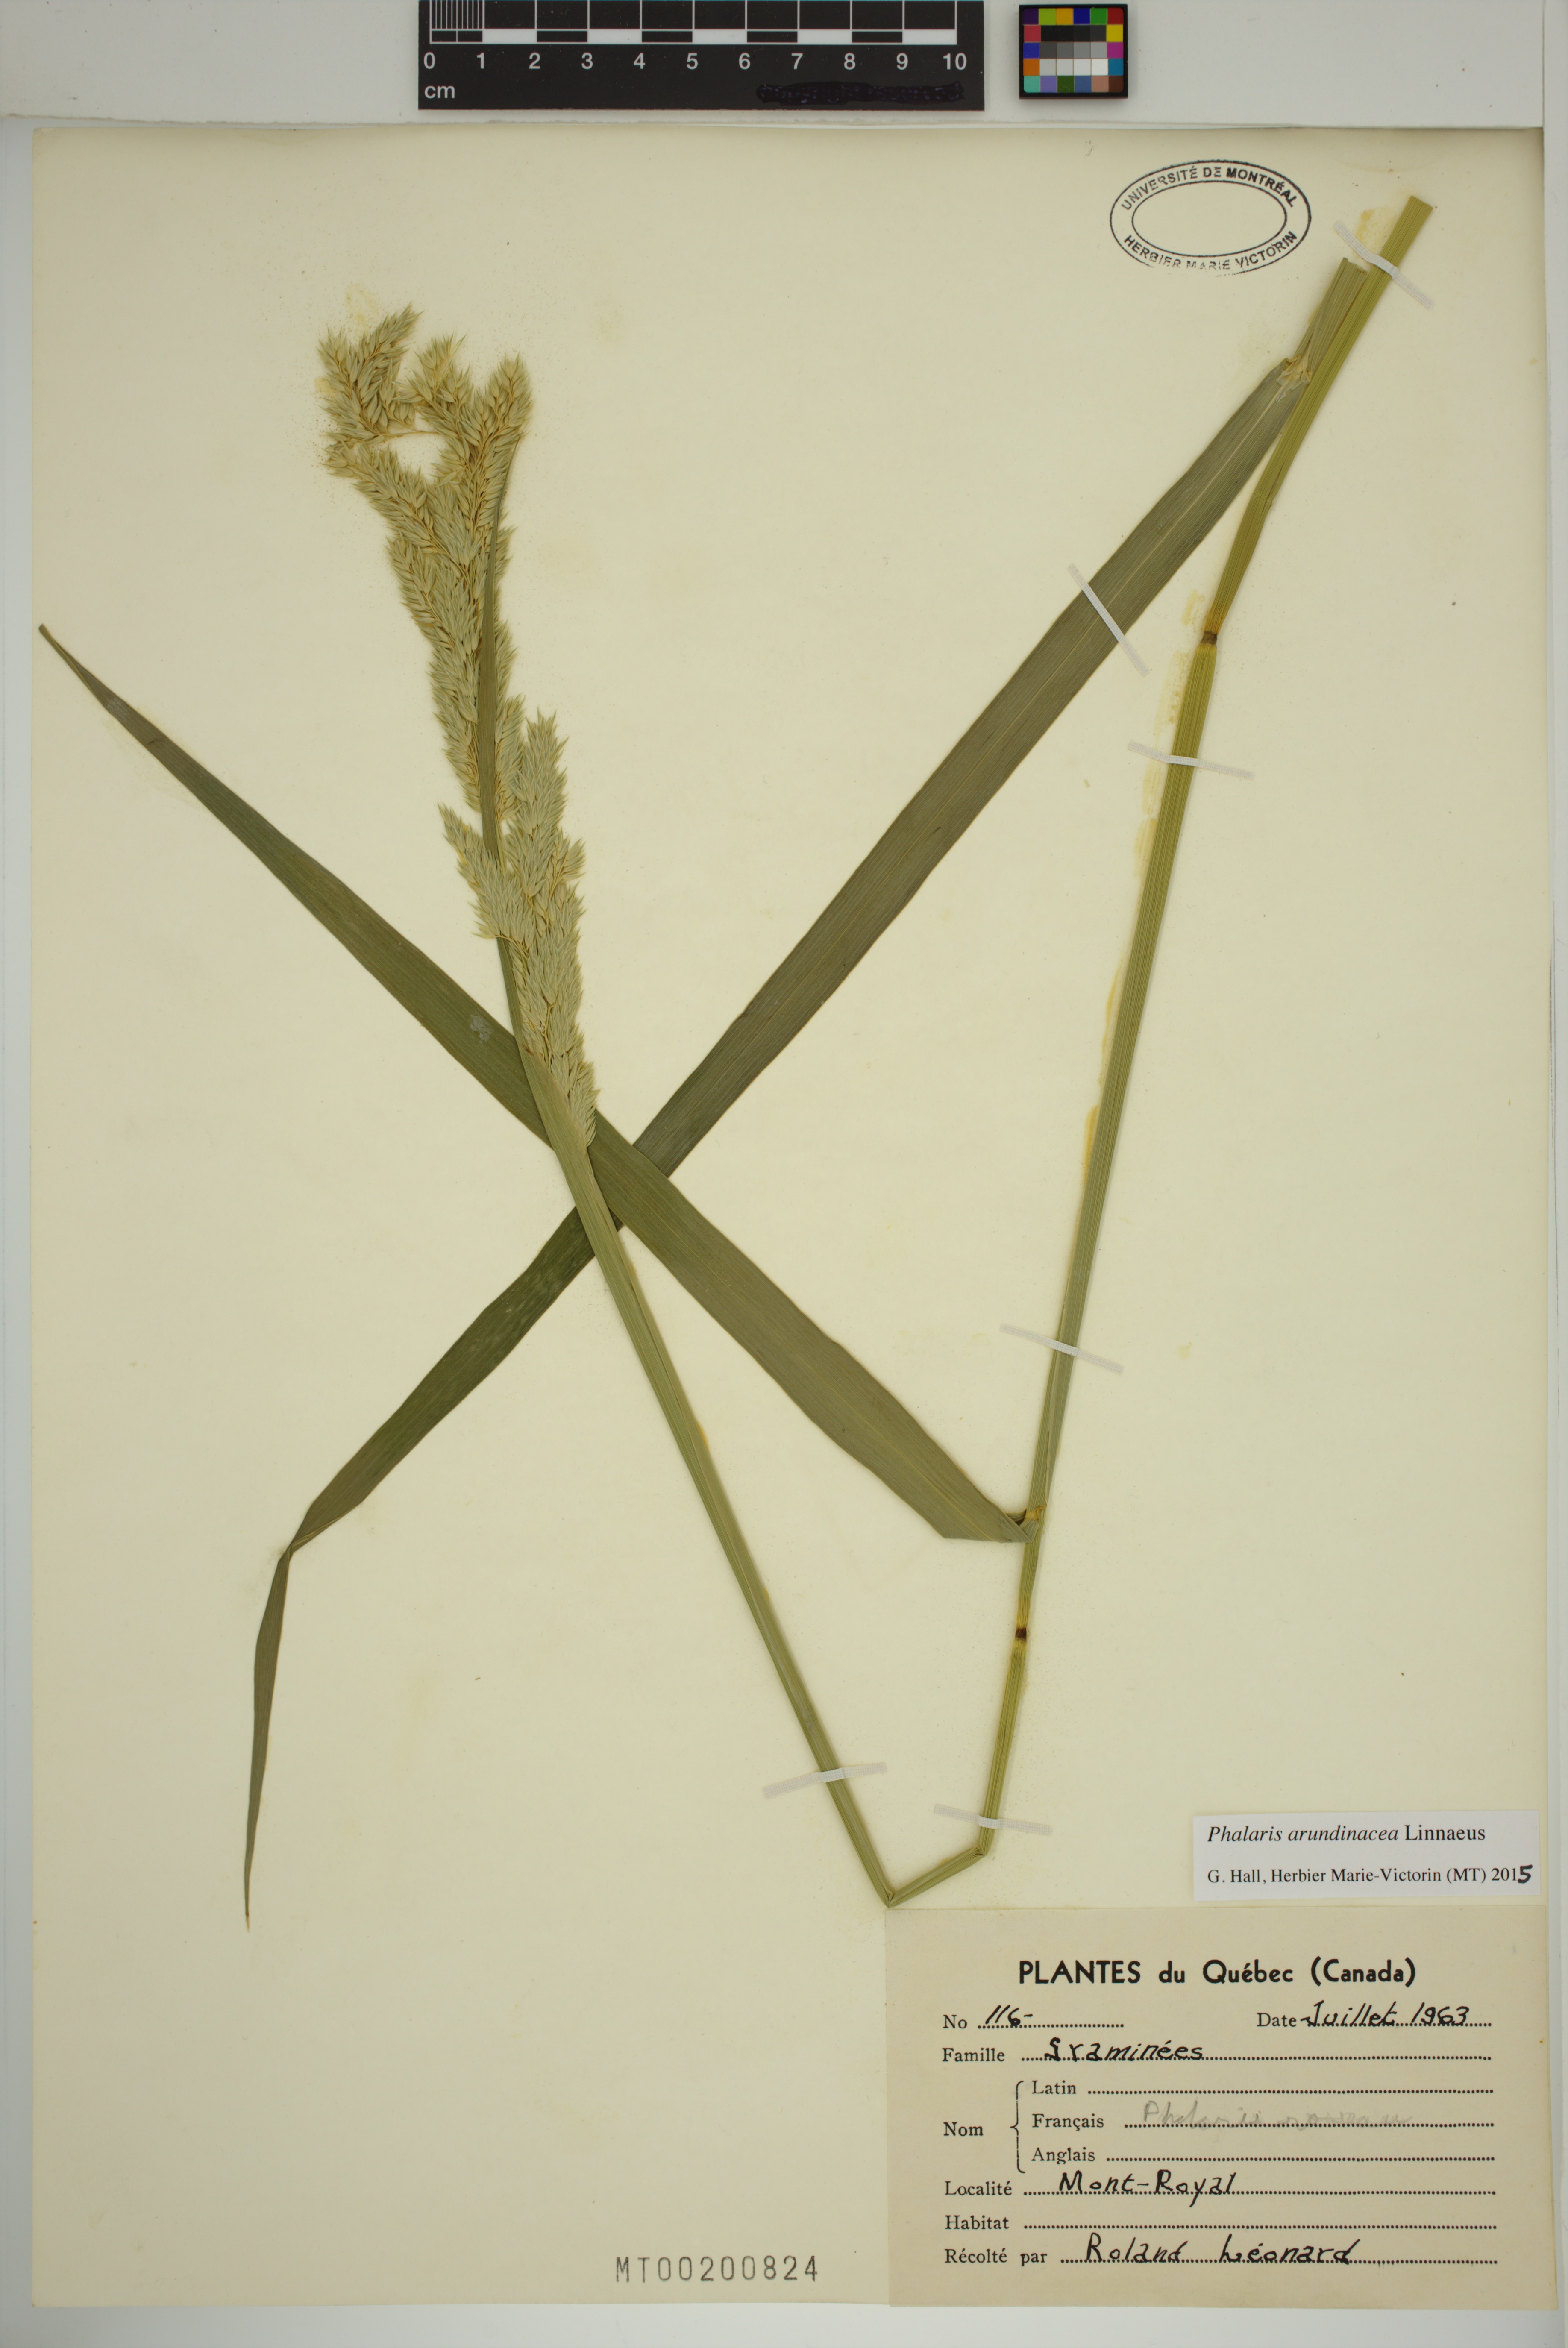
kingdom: Plantae
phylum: Tracheophyta
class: Liliopsida
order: Poales
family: Poaceae
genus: Phalaris
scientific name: Phalaris arundinacea
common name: Reed canary-grass
